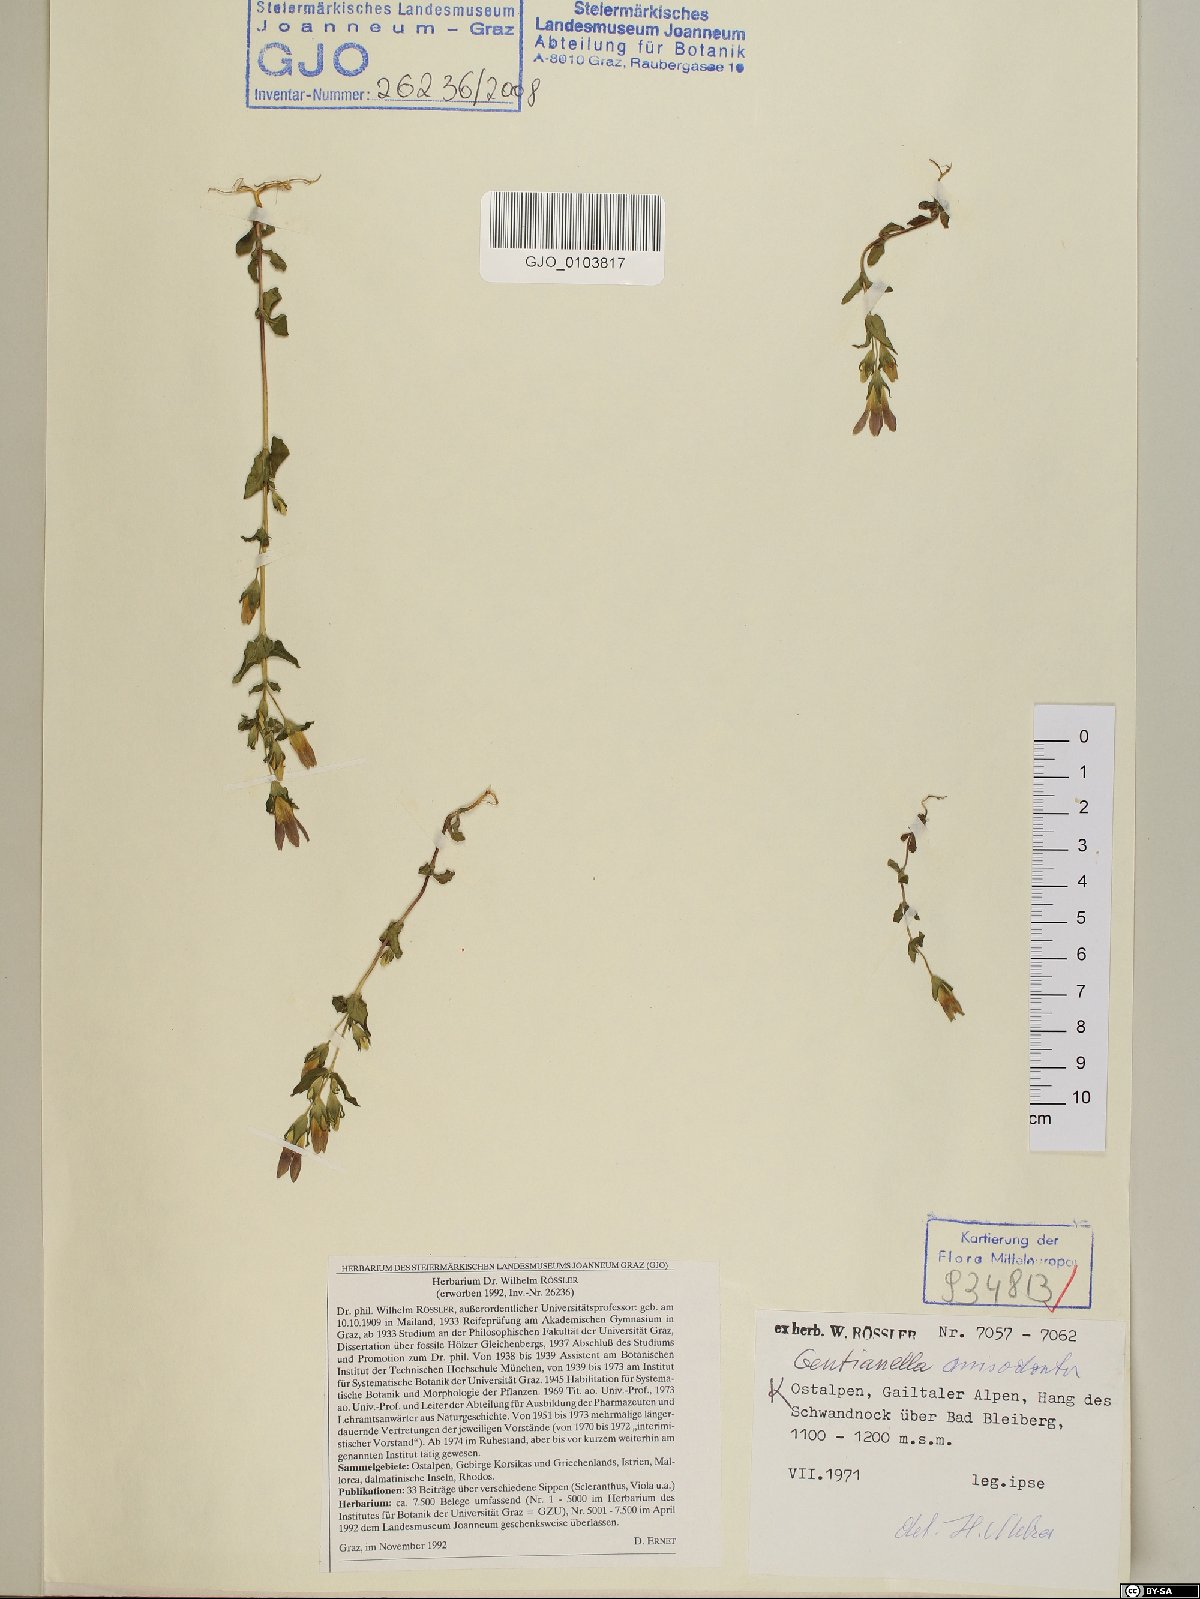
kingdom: Plantae
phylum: Tracheophyta
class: Magnoliopsida
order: Gentianales
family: Gentianaceae
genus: Gentianella
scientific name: Gentianella anisodonta
